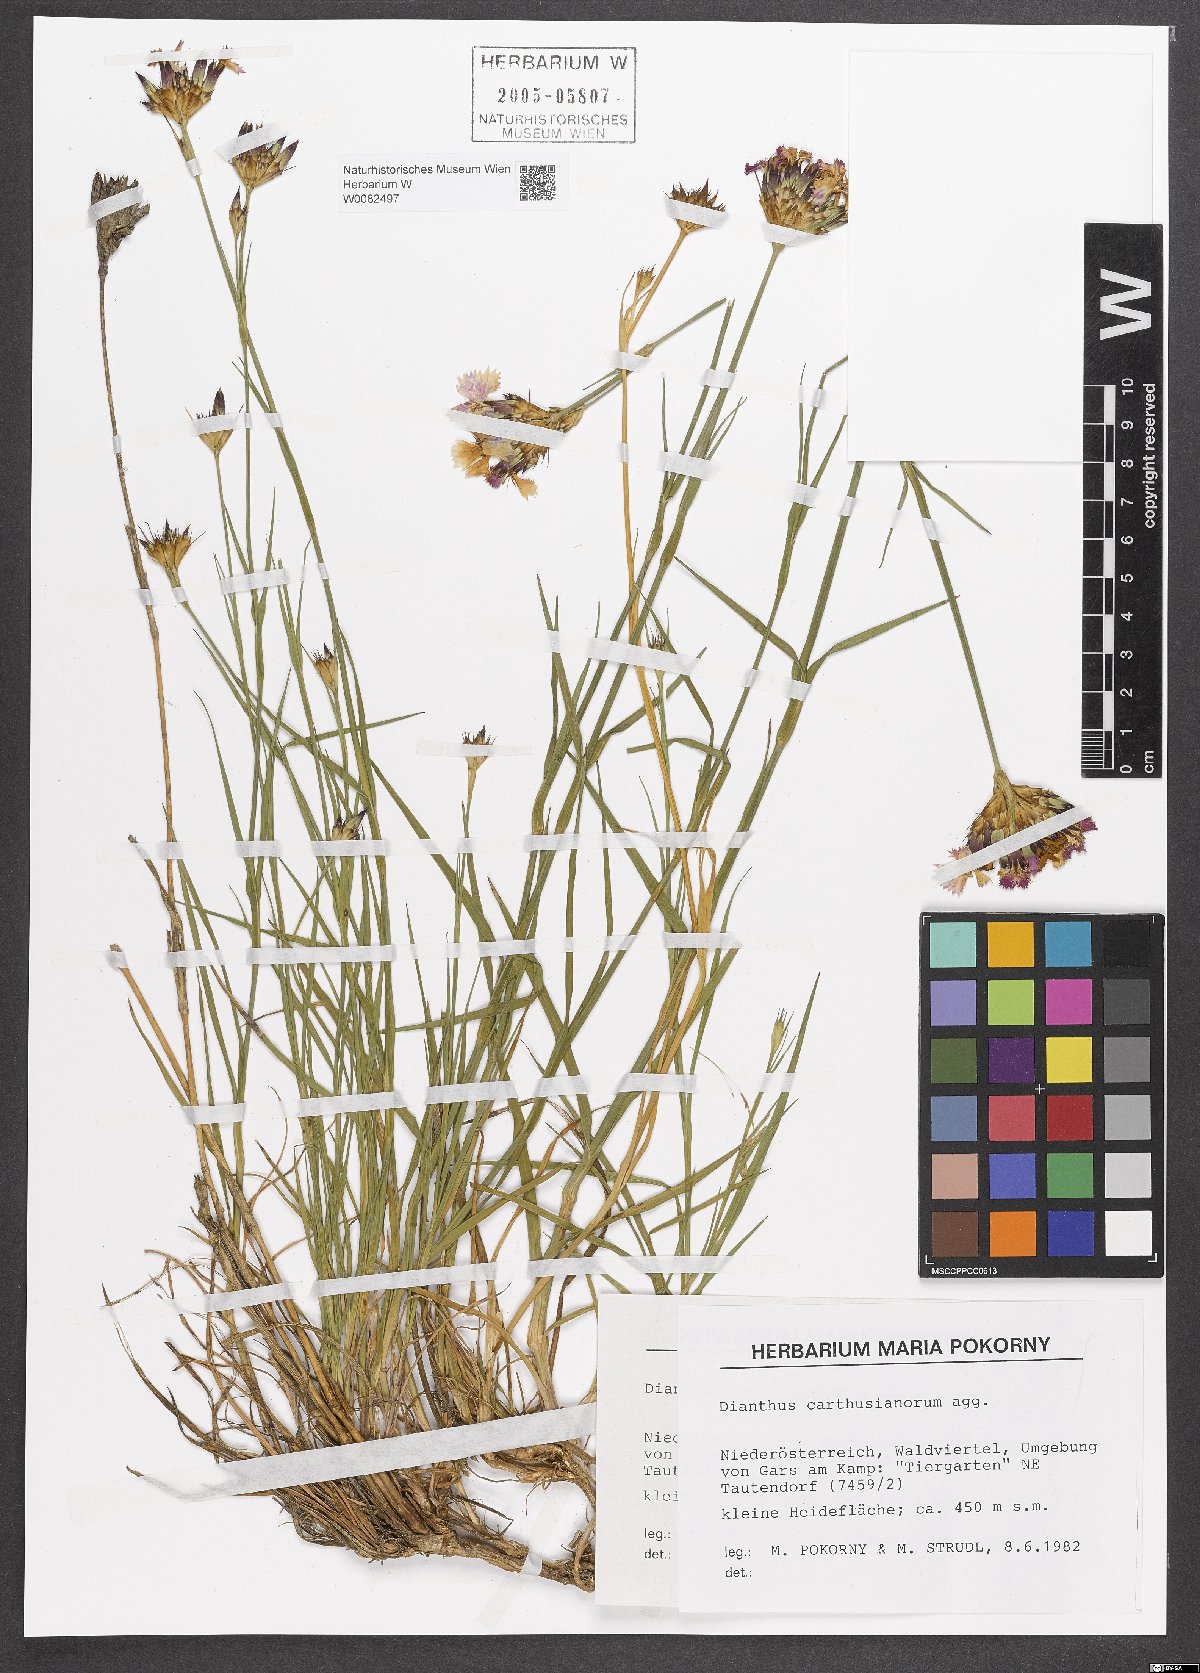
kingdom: Plantae
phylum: Tracheophyta
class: Magnoliopsida
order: Caryophyllales
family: Caryophyllaceae
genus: Dianthus
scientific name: Dianthus carthusianorum
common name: Carthusian pink
